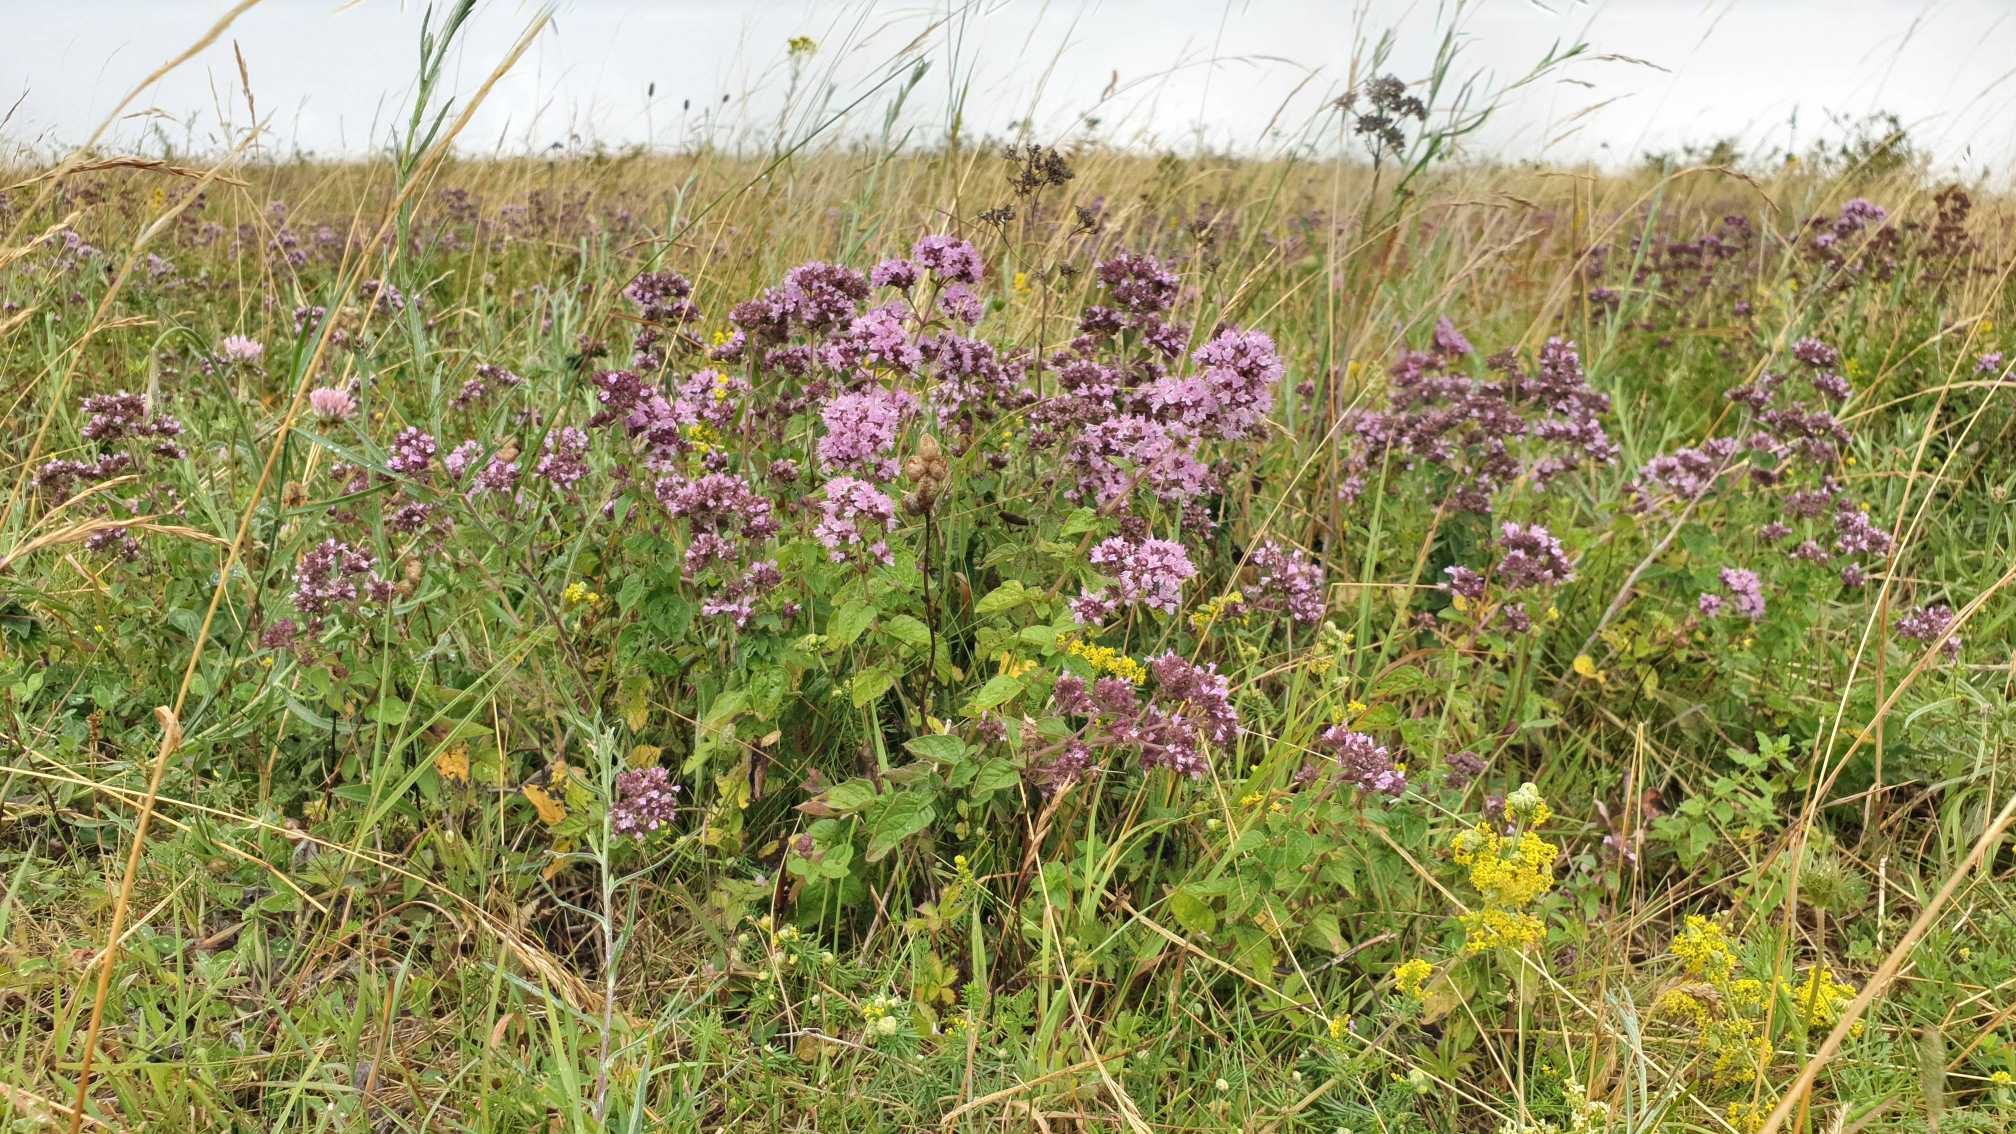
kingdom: Plantae
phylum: Tracheophyta
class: Magnoliopsida
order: Lamiales
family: Lamiaceae
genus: Origanum
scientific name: Origanum vulgare
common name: Merian
